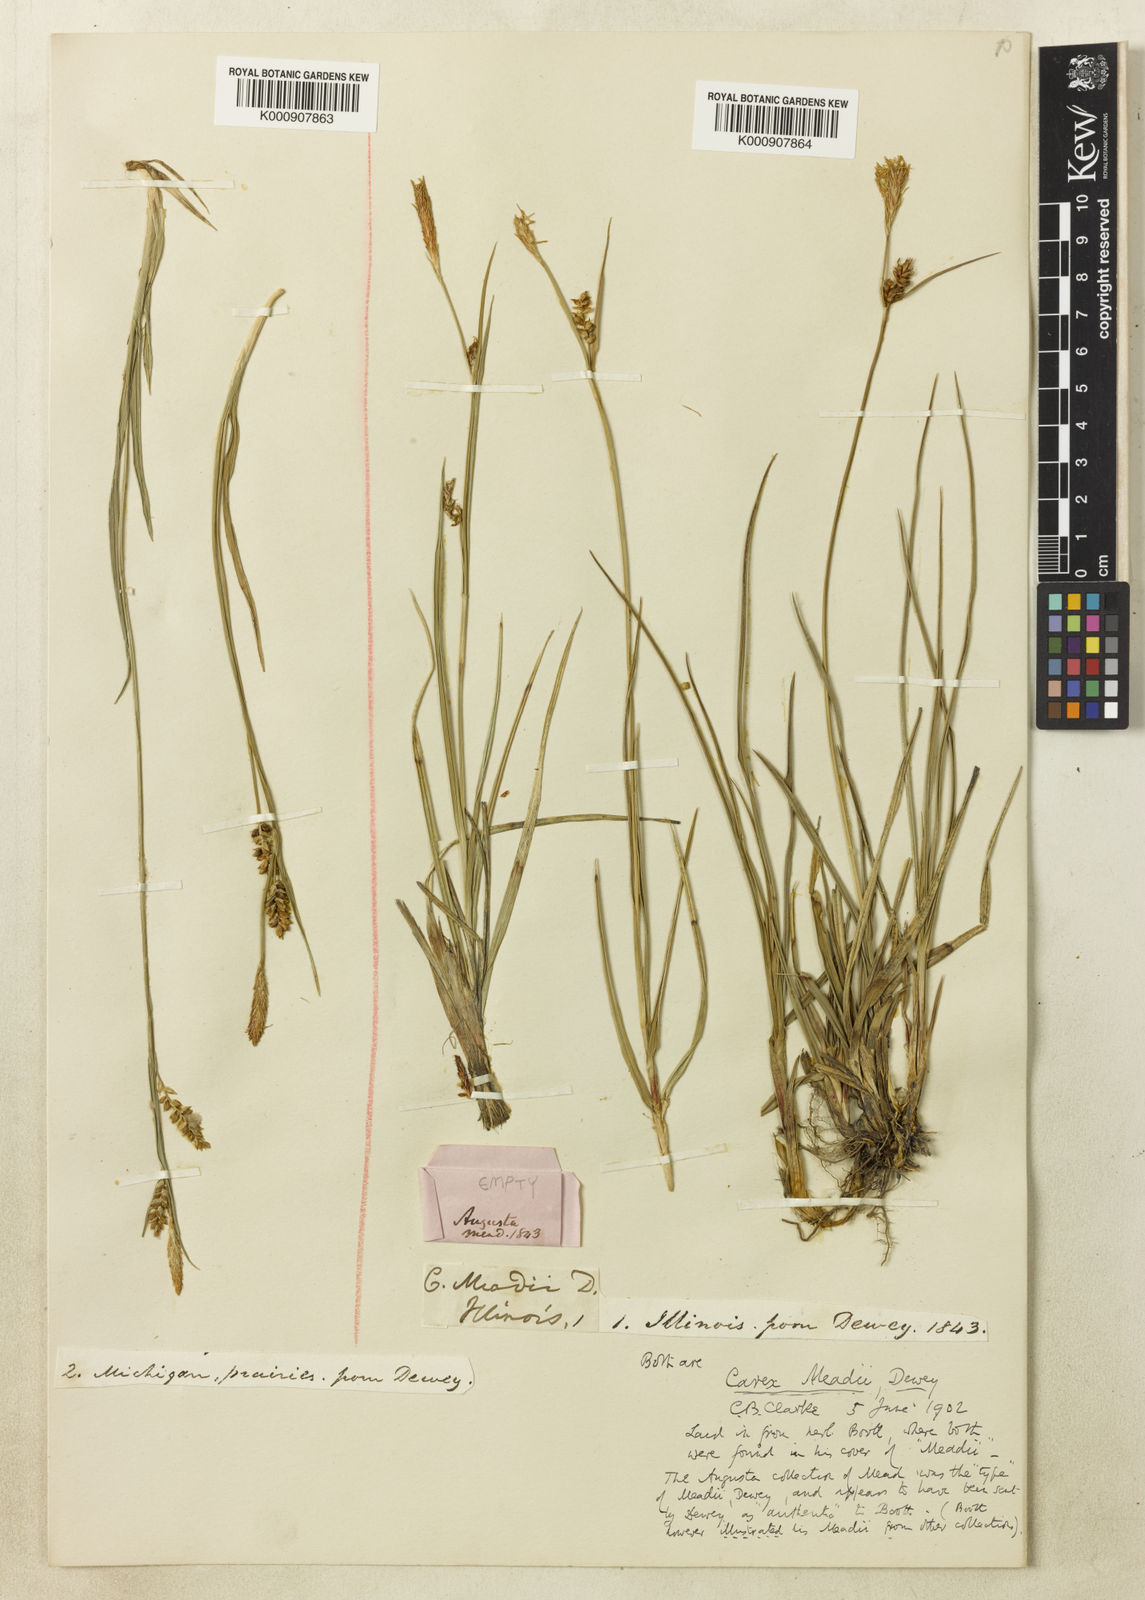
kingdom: Plantae
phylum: Tracheophyta
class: Liliopsida
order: Poales
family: Cyperaceae
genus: Carex
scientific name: Carex meadii
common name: Mead's sedge
